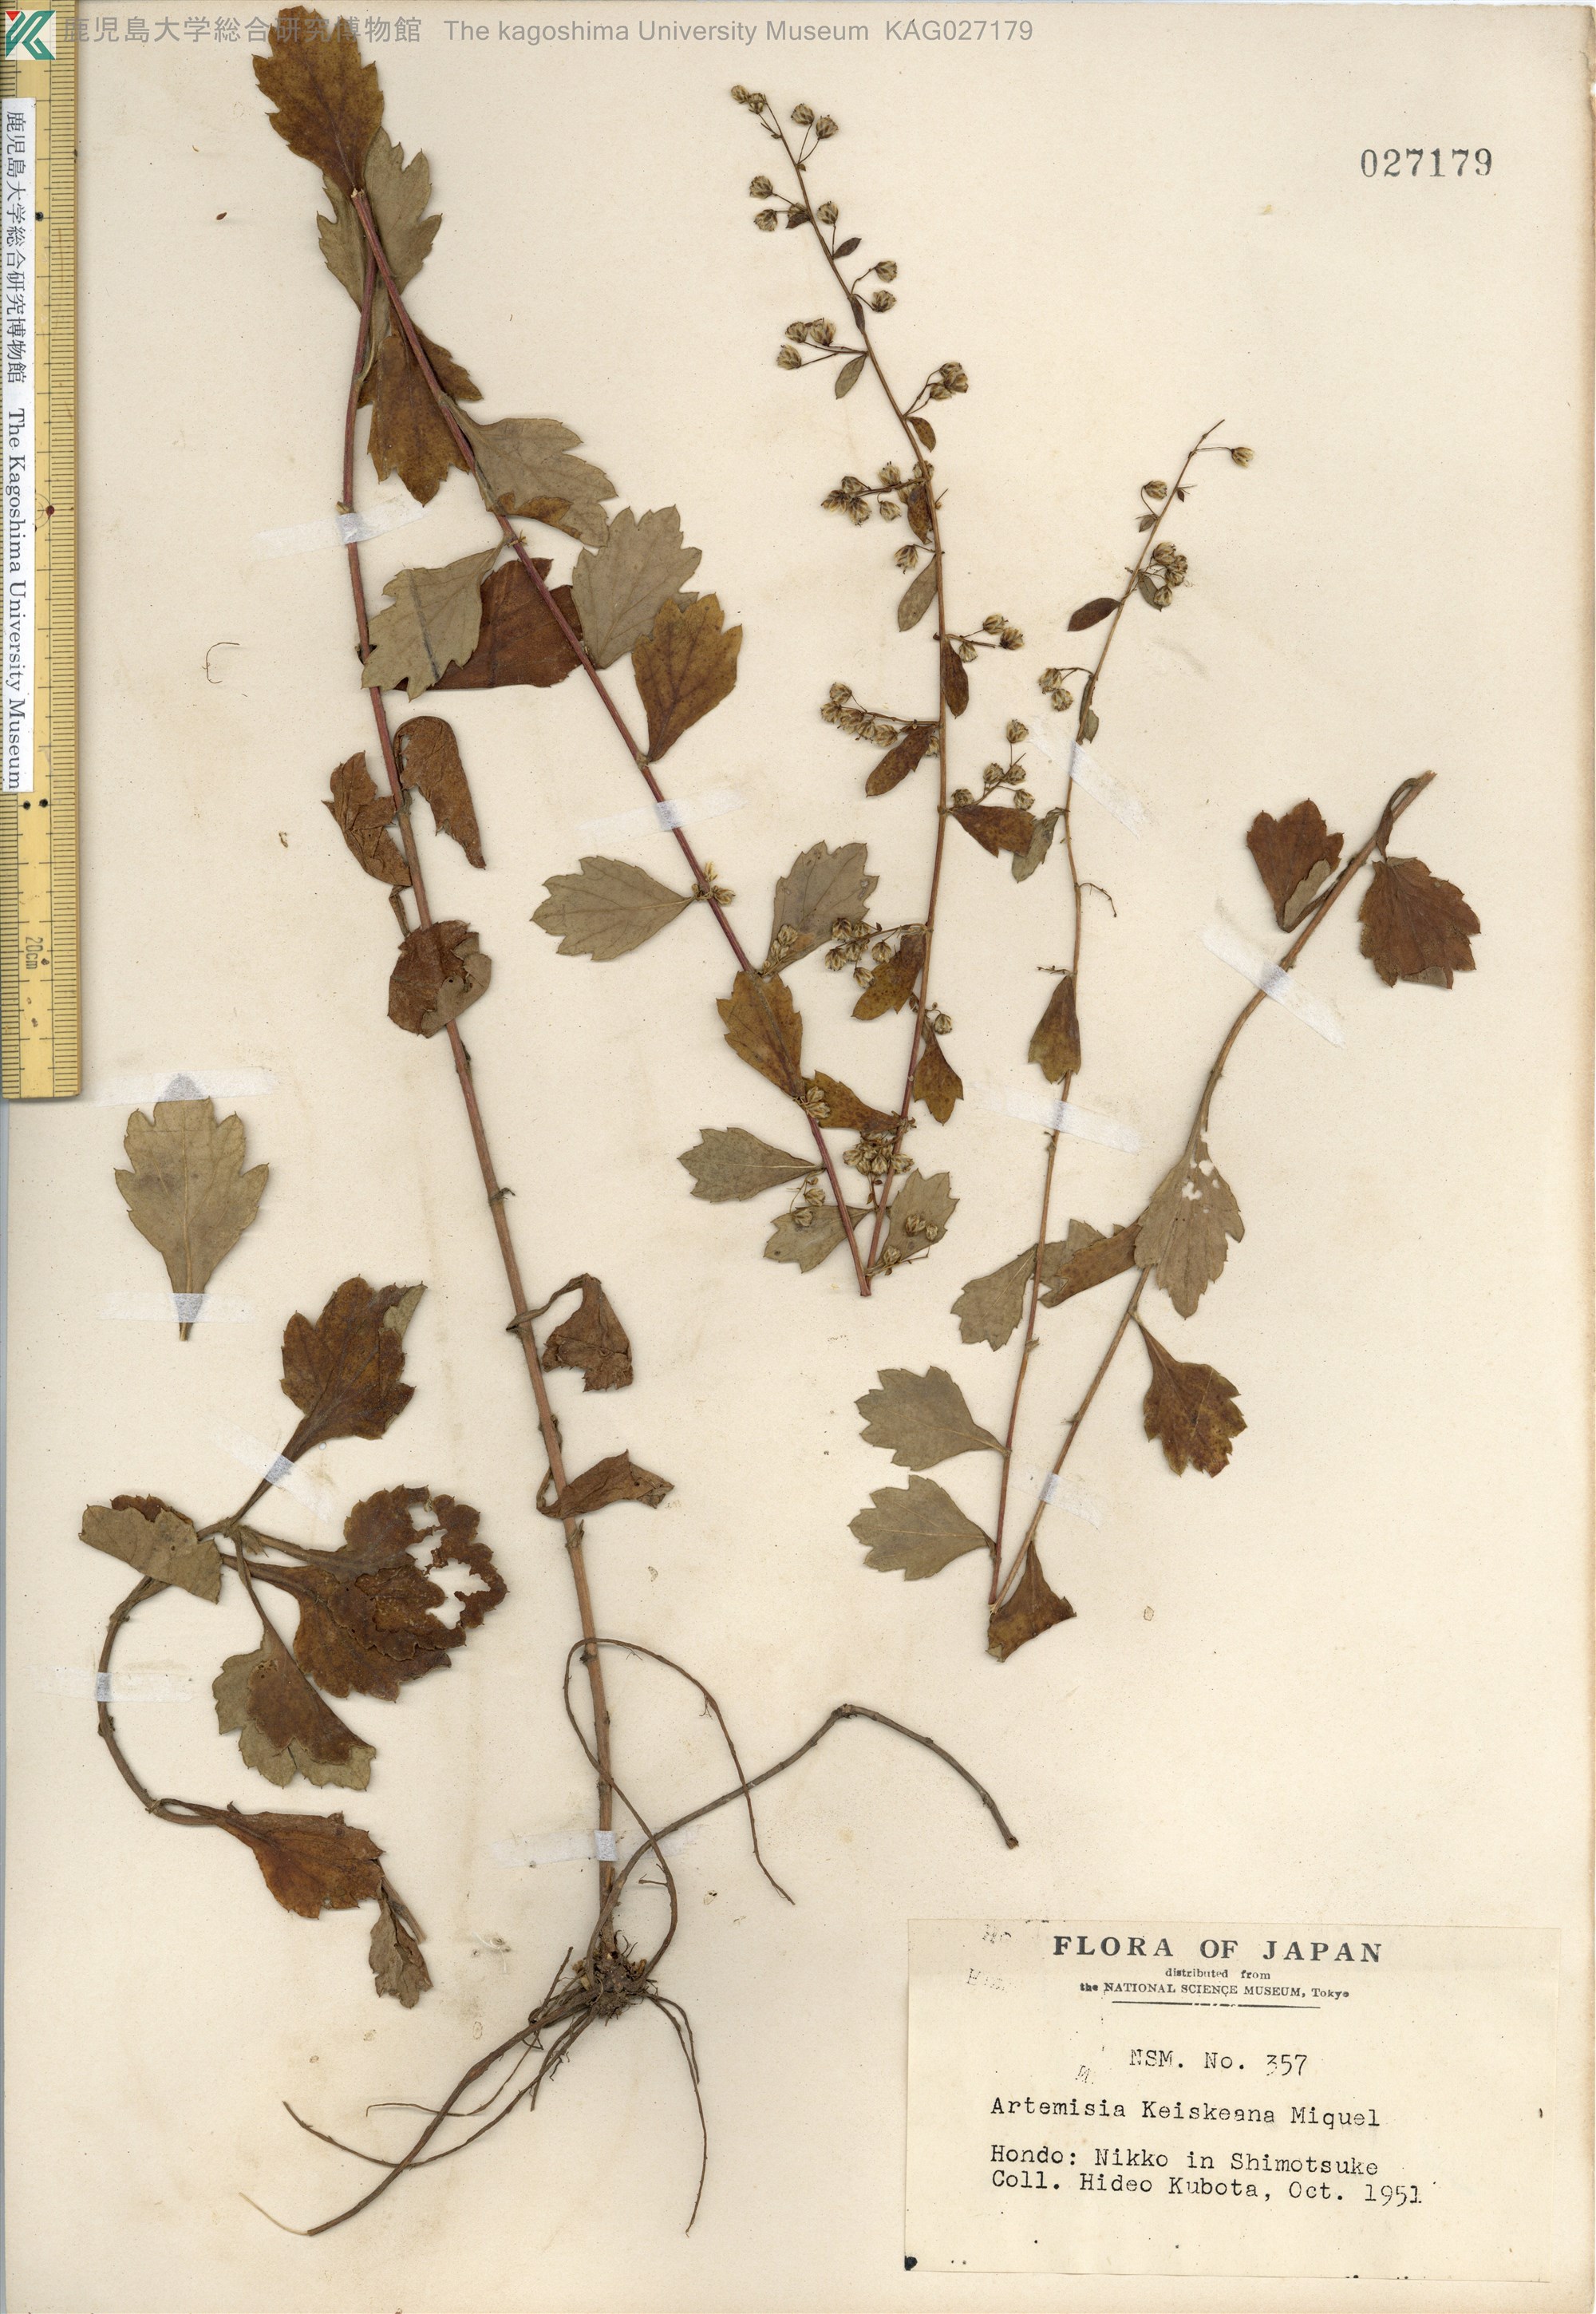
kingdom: Plantae
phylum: Tracheophyta
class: Magnoliopsida
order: Asterales
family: Asteraceae
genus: Artemisia
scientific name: Artemisia keiskeana
